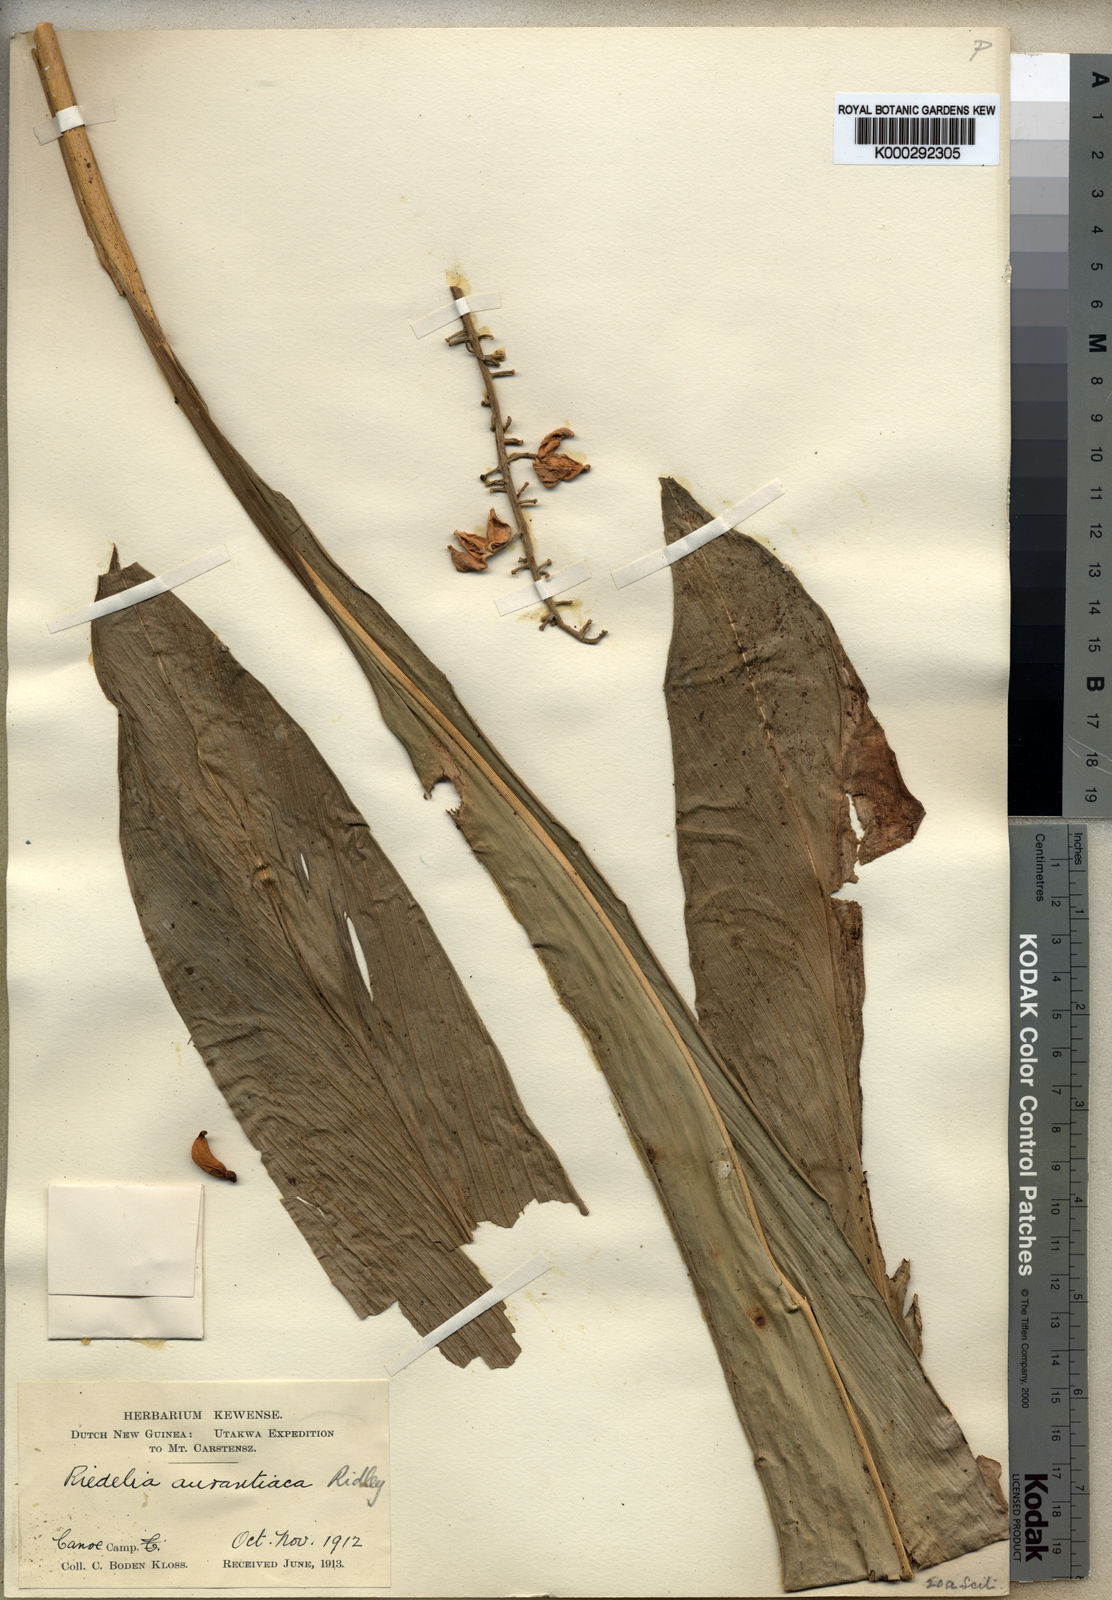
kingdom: Plantae
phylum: Tracheophyta
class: Liliopsida
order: Zingiberales
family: Zingiberaceae
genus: Riedelia
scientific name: Riedelia aurantiaca
